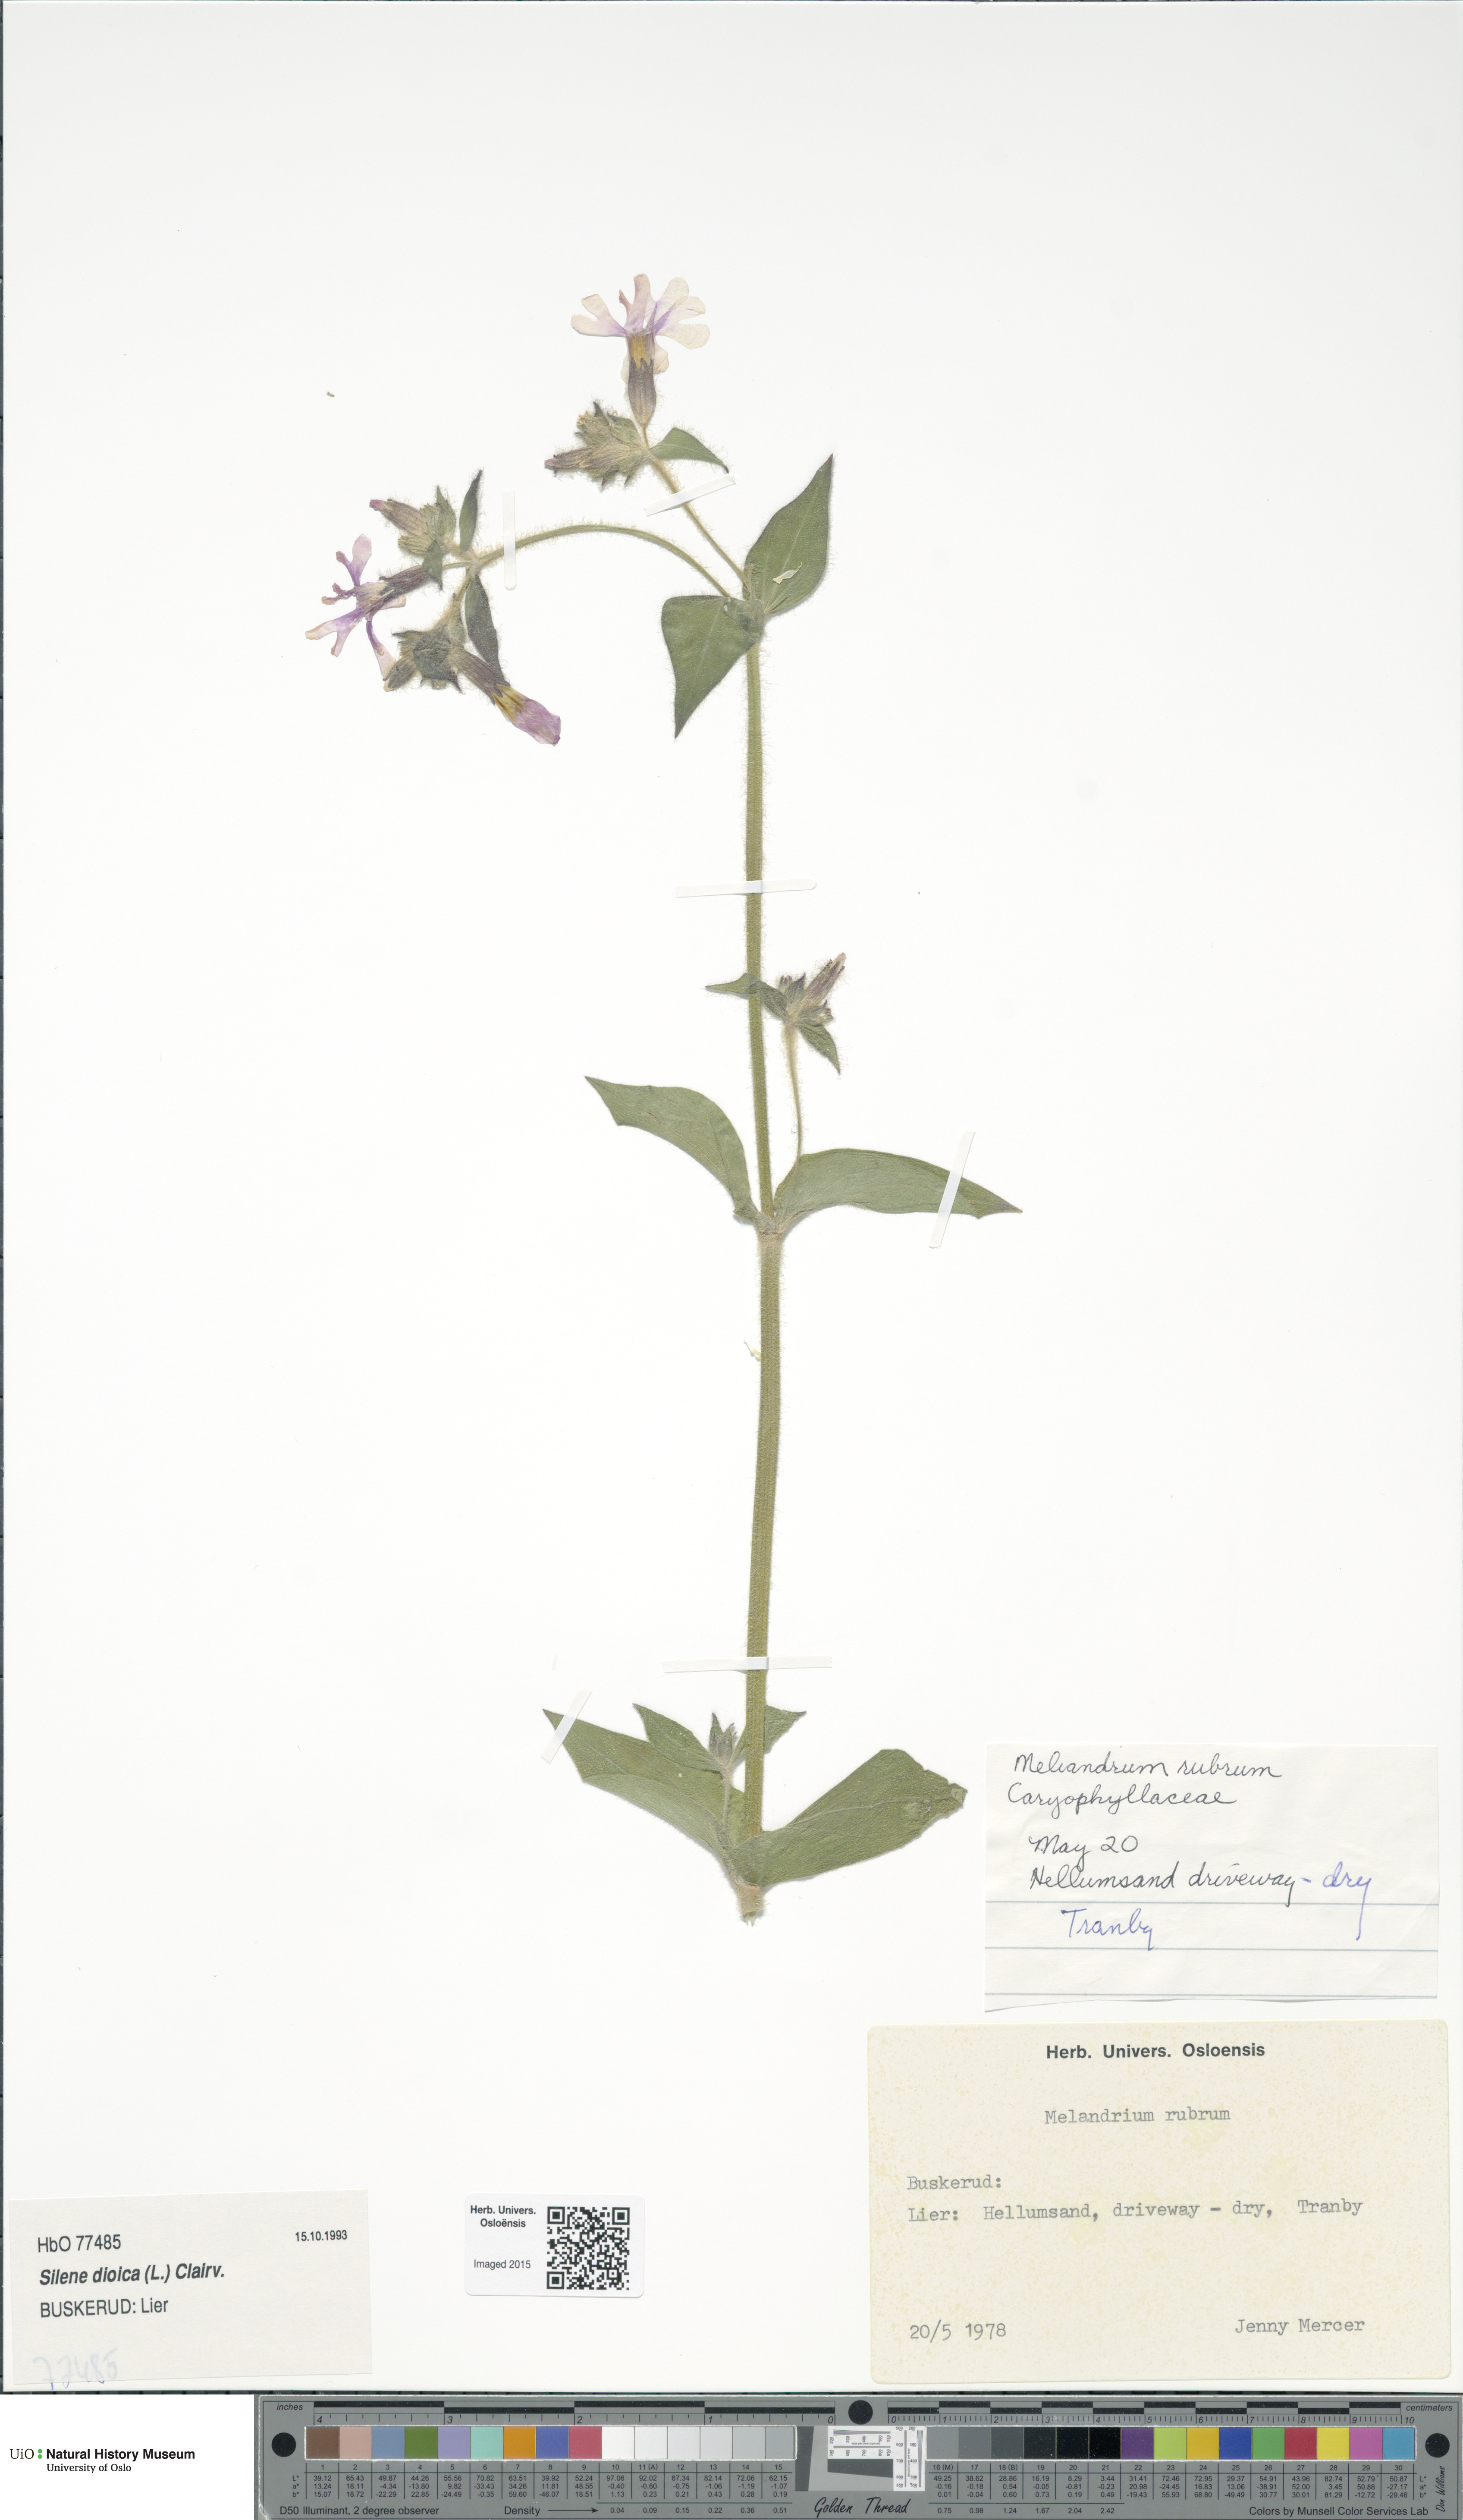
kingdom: Plantae
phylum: Tracheophyta
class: Magnoliopsida
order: Caryophyllales
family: Caryophyllaceae
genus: Silene
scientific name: Silene dioica
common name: Red campion
